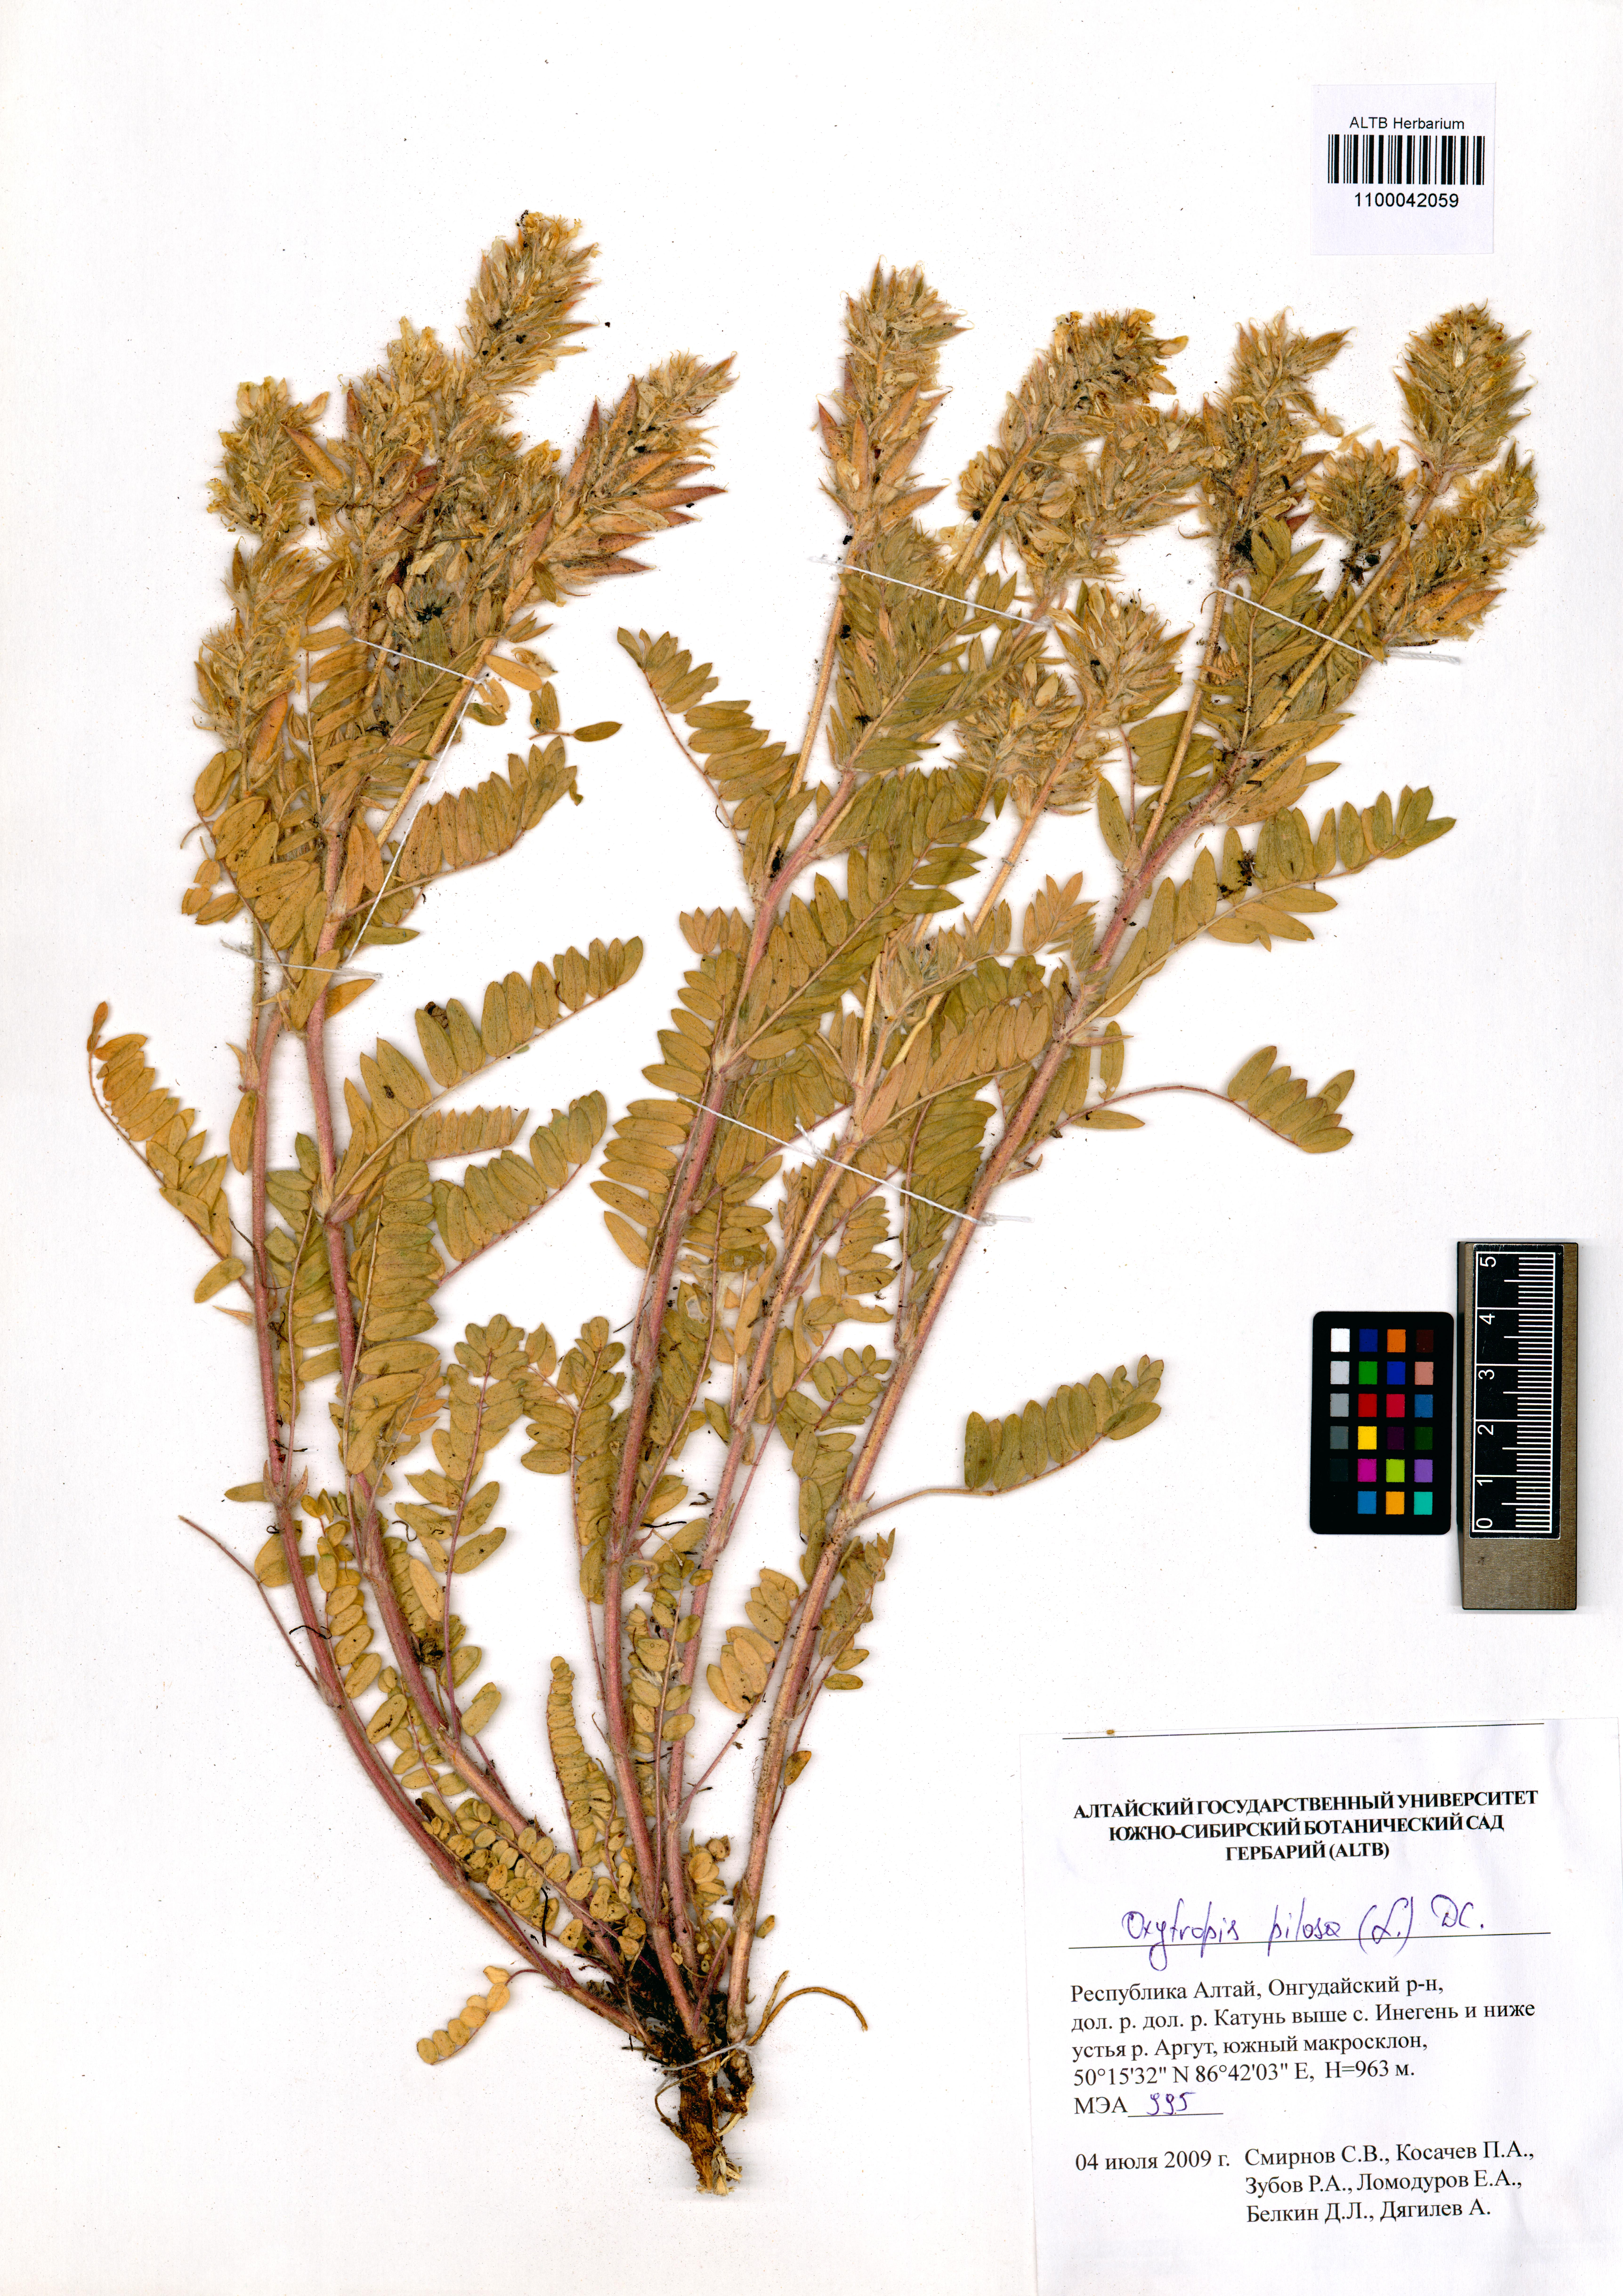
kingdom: Plantae
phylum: Tracheophyta
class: Magnoliopsida
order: Fabales
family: Fabaceae
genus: Oxytropis
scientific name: Oxytropis pilosa
